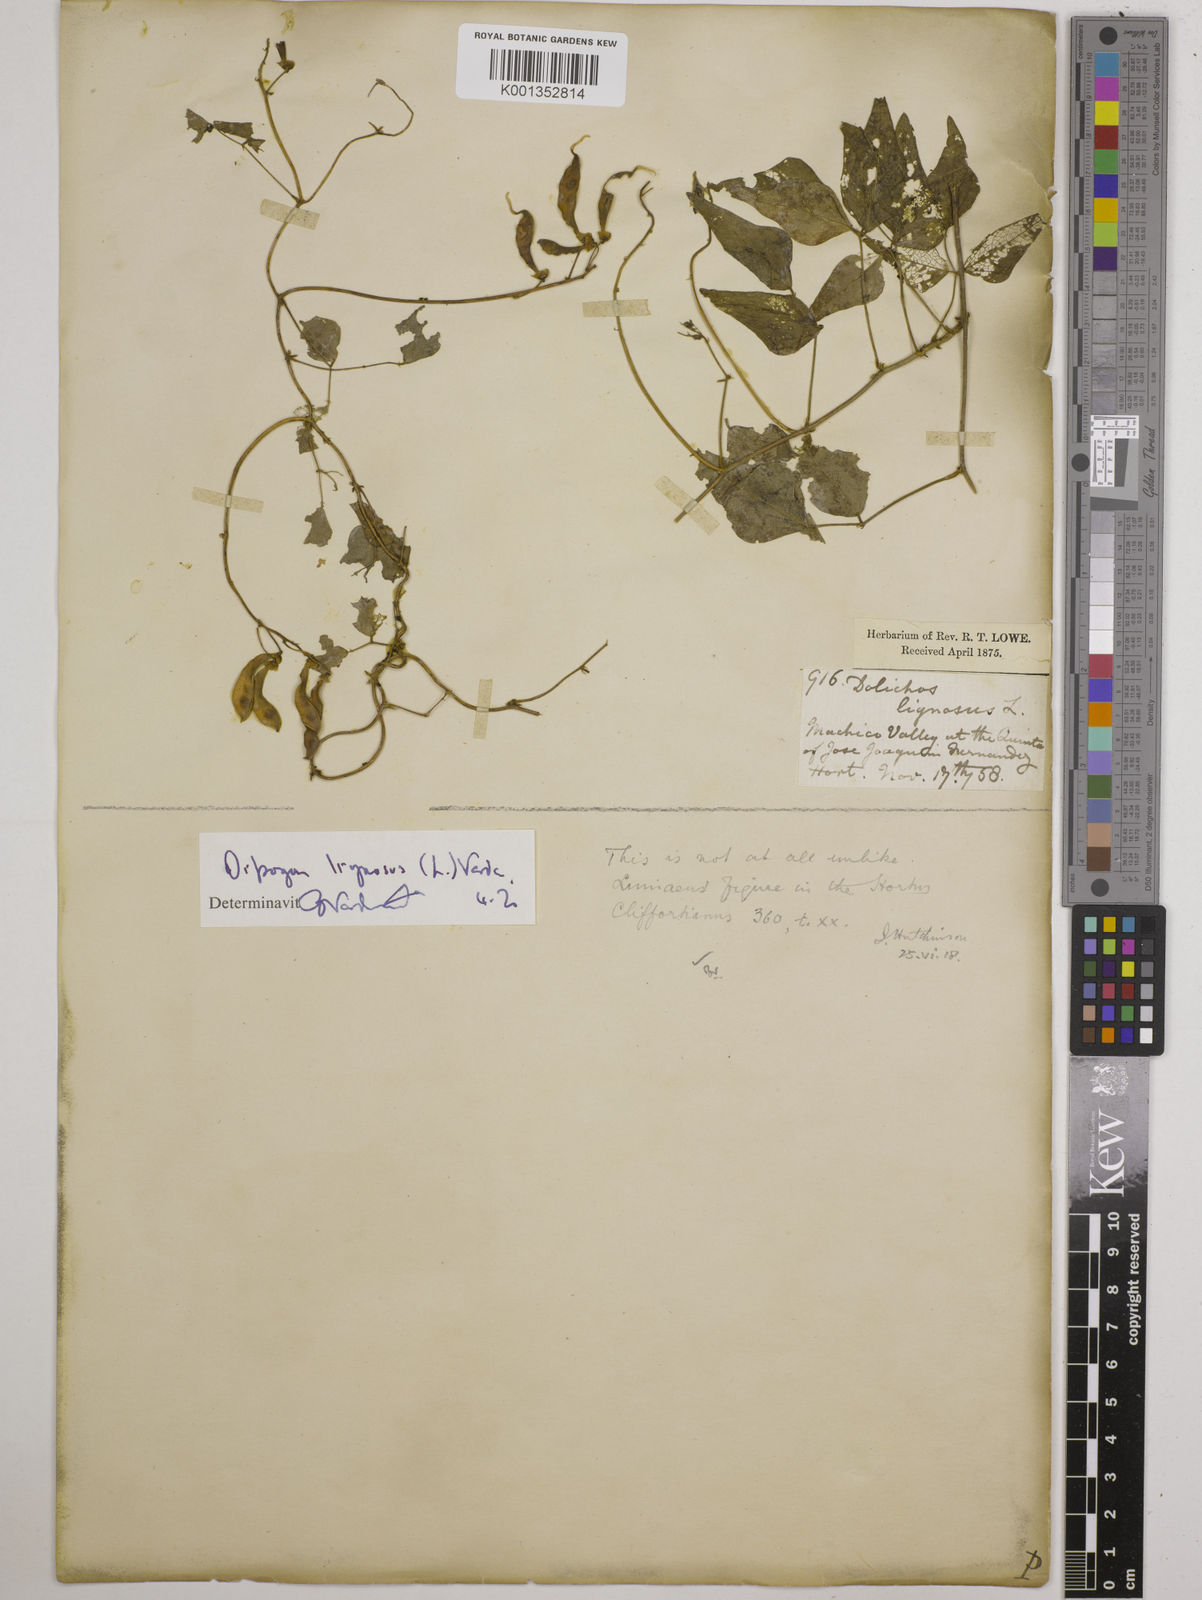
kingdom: Plantae
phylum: Tracheophyta
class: Magnoliopsida
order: Fabales
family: Fabaceae
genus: Dipogon
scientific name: Dipogon lignosus
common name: Okie bean
